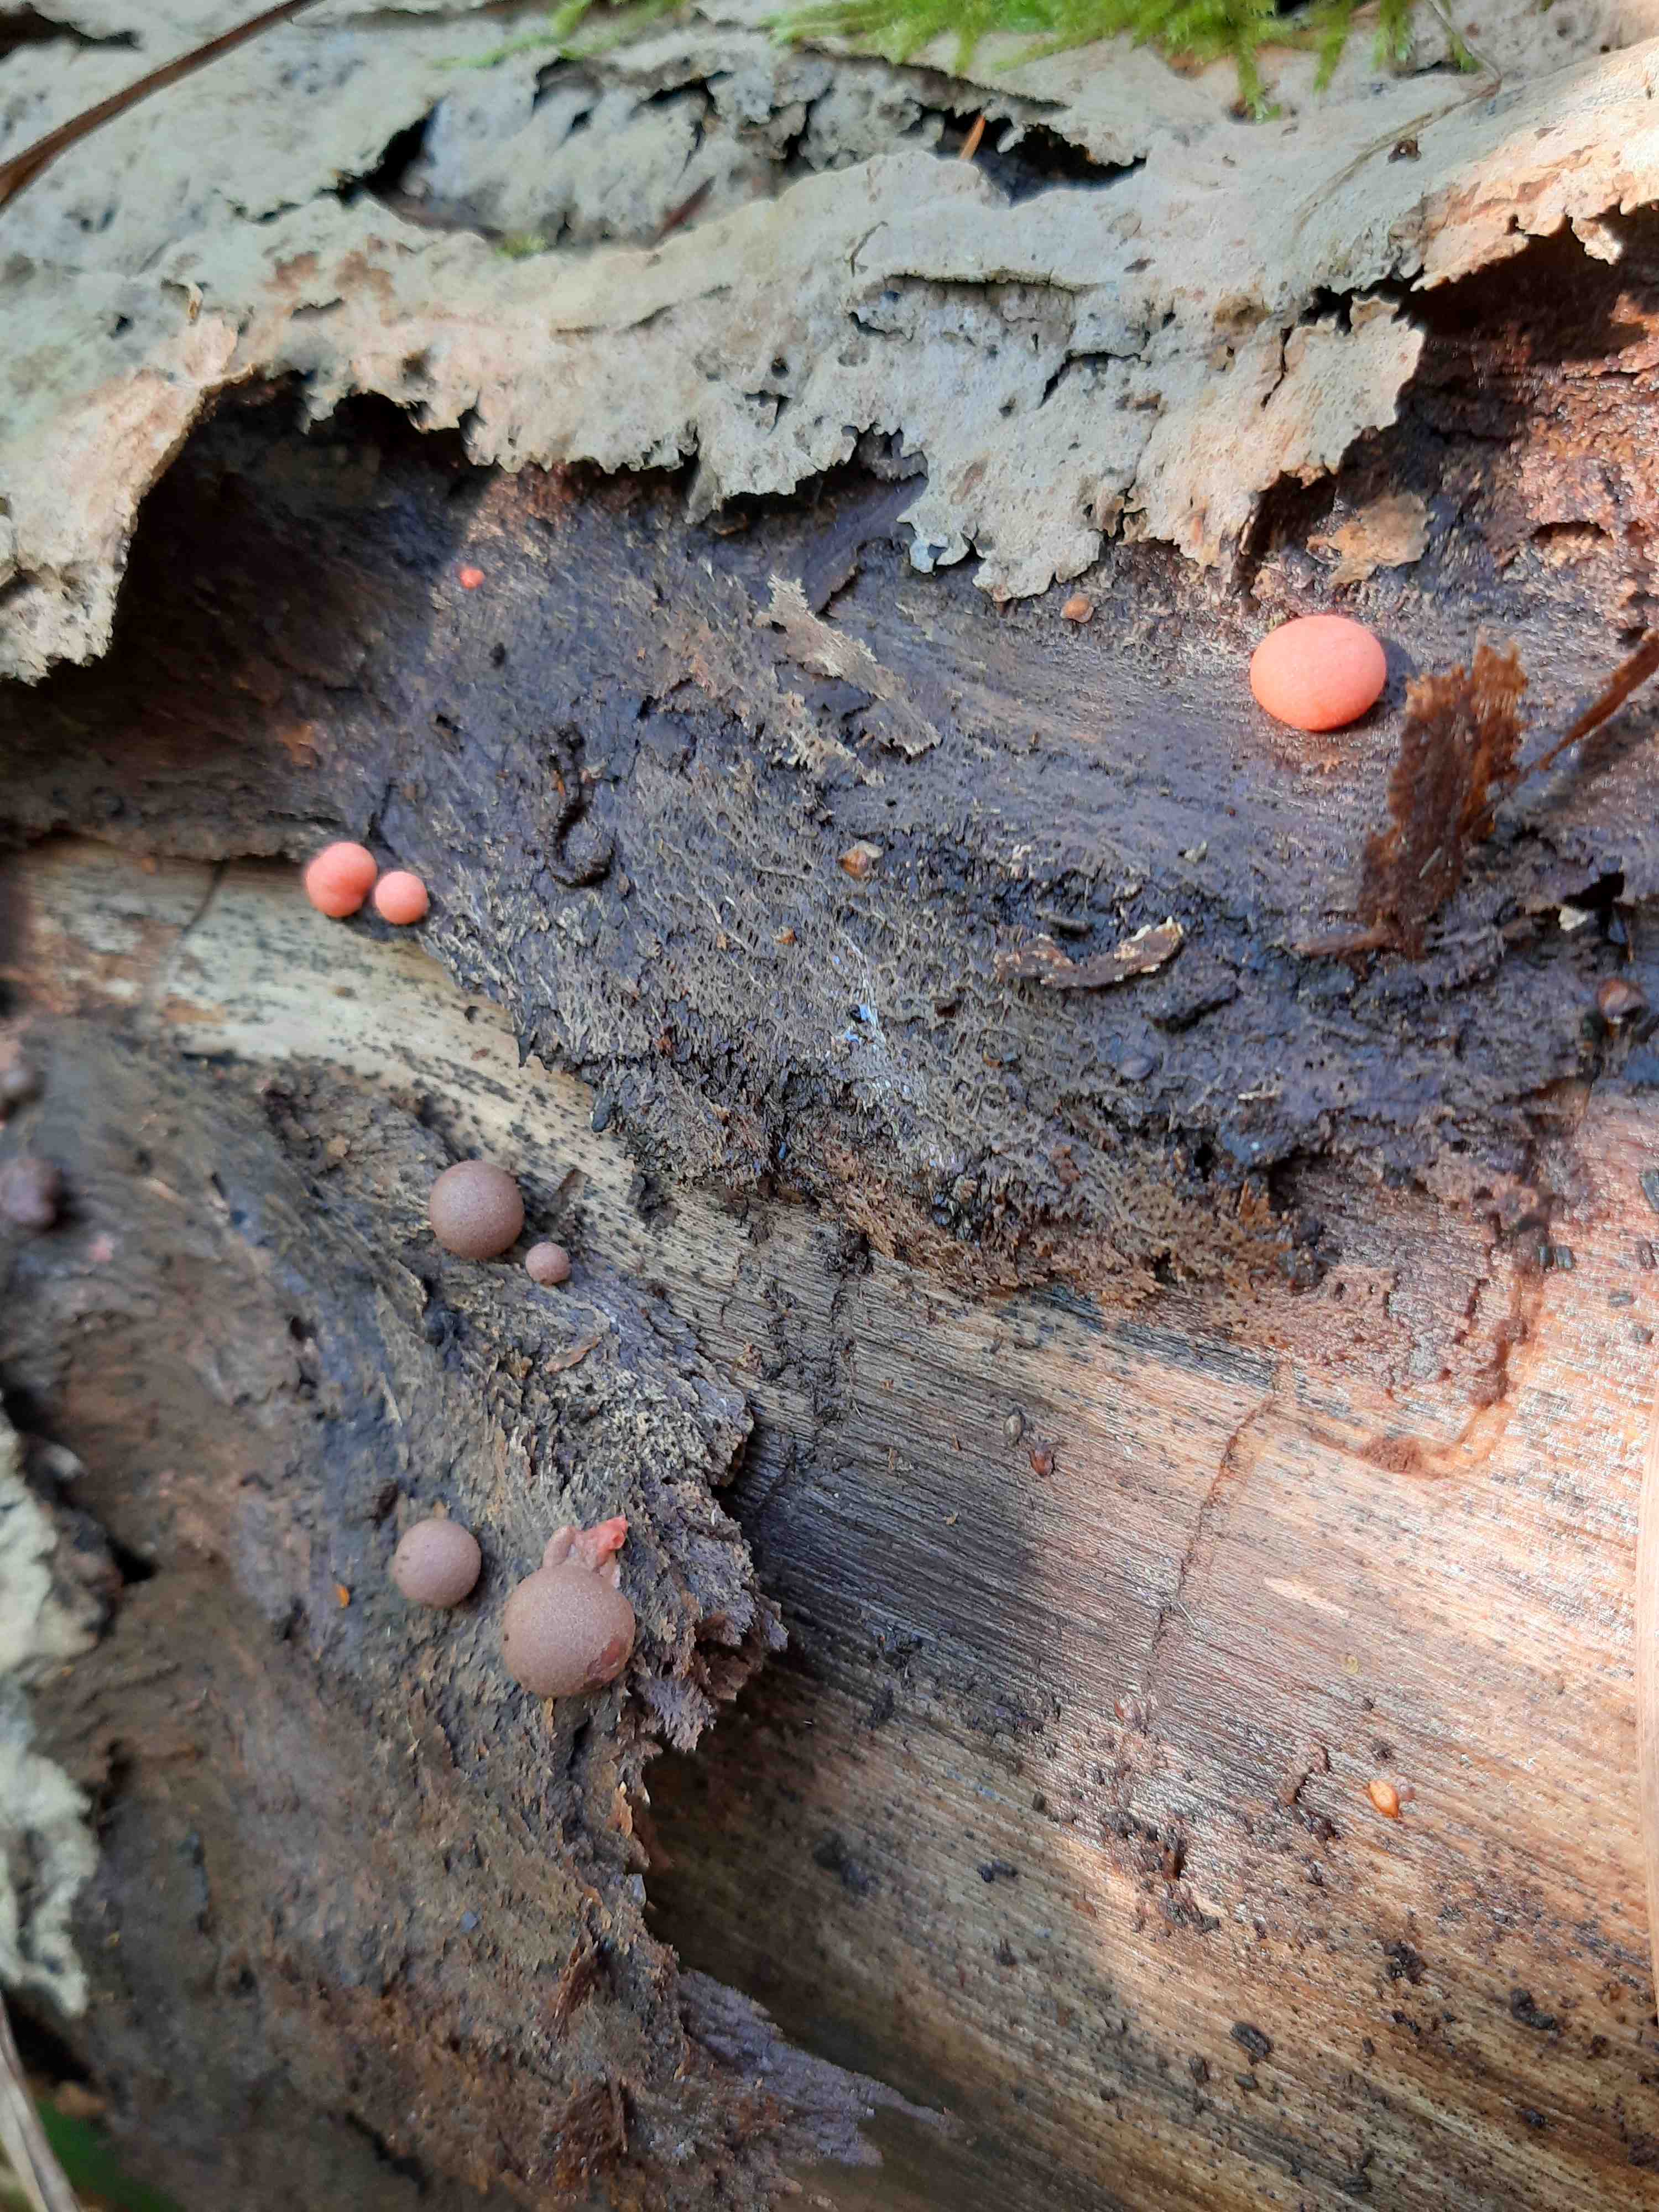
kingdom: Protozoa
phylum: Mycetozoa
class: Myxomycetes
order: Cribrariales
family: Tubiferaceae
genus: Lycogala
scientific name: Lycogala epidendrum
